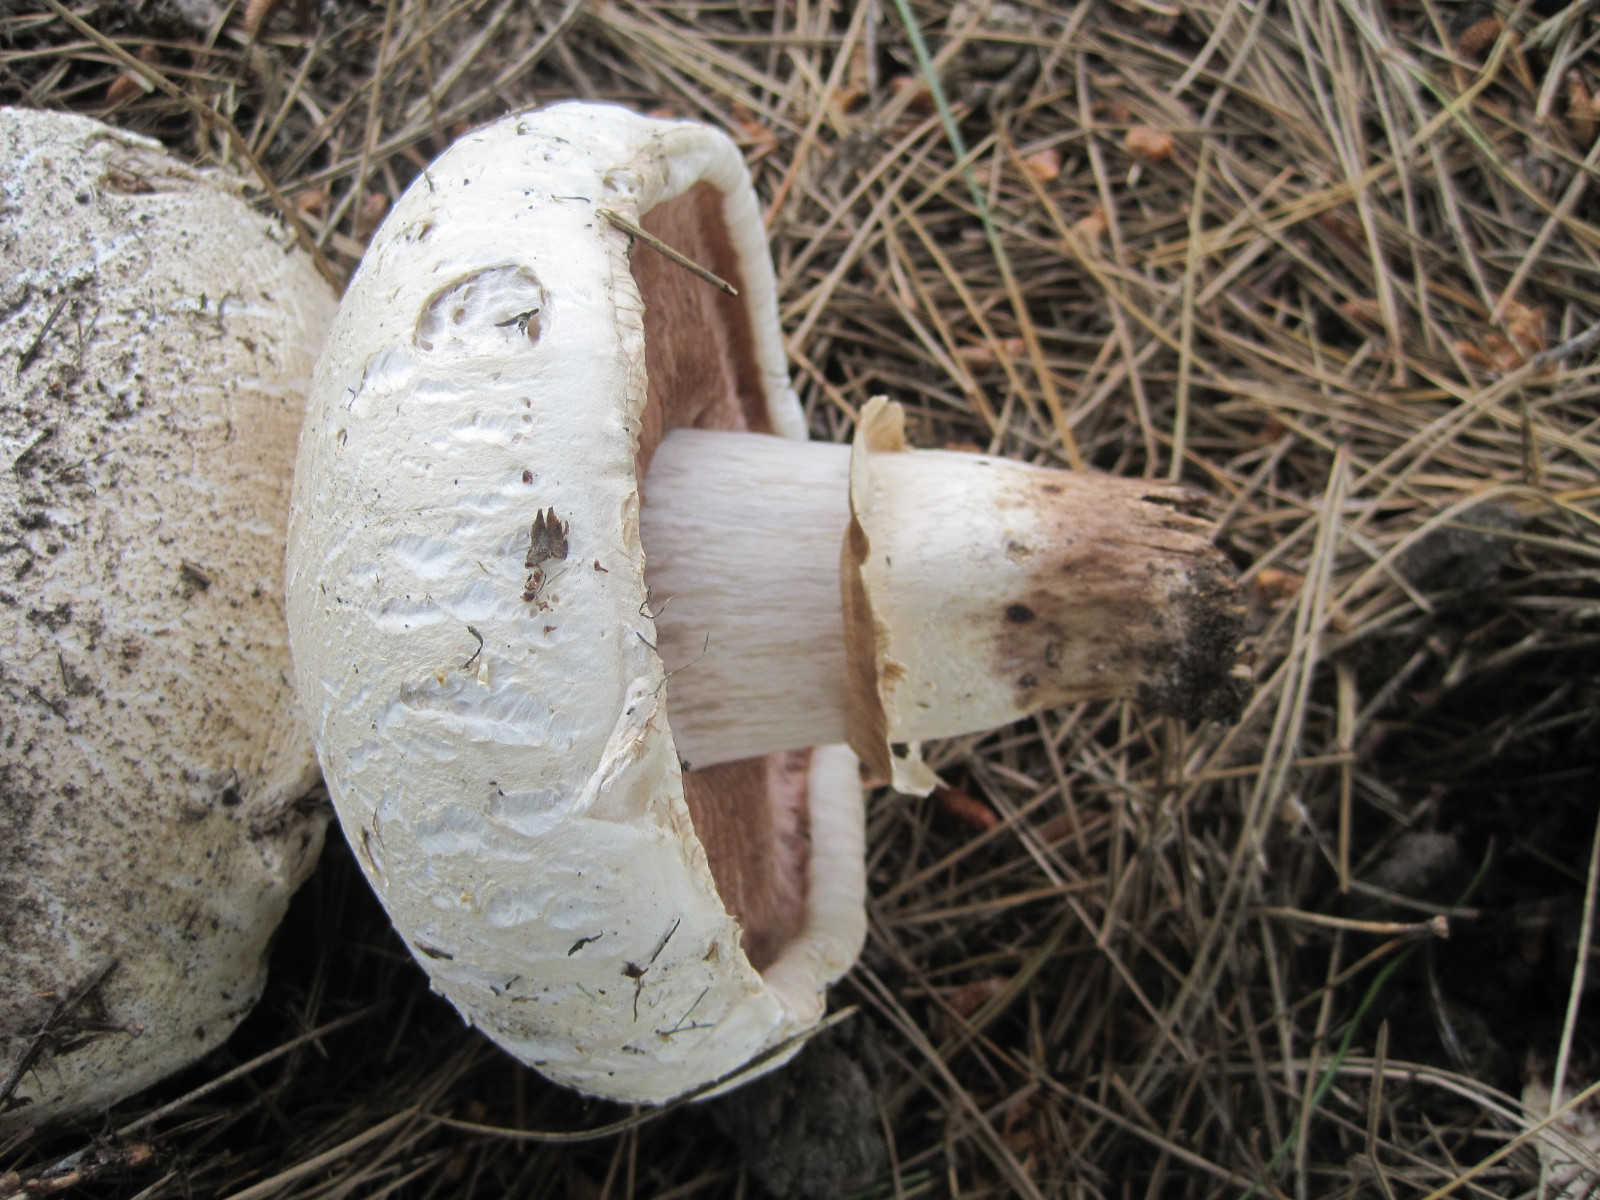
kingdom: Fungi
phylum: Basidiomycota
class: Agaricomycetes
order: Agaricales
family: Agaricaceae
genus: Agaricus
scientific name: Agaricus bernardii
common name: strandengs-champignon
